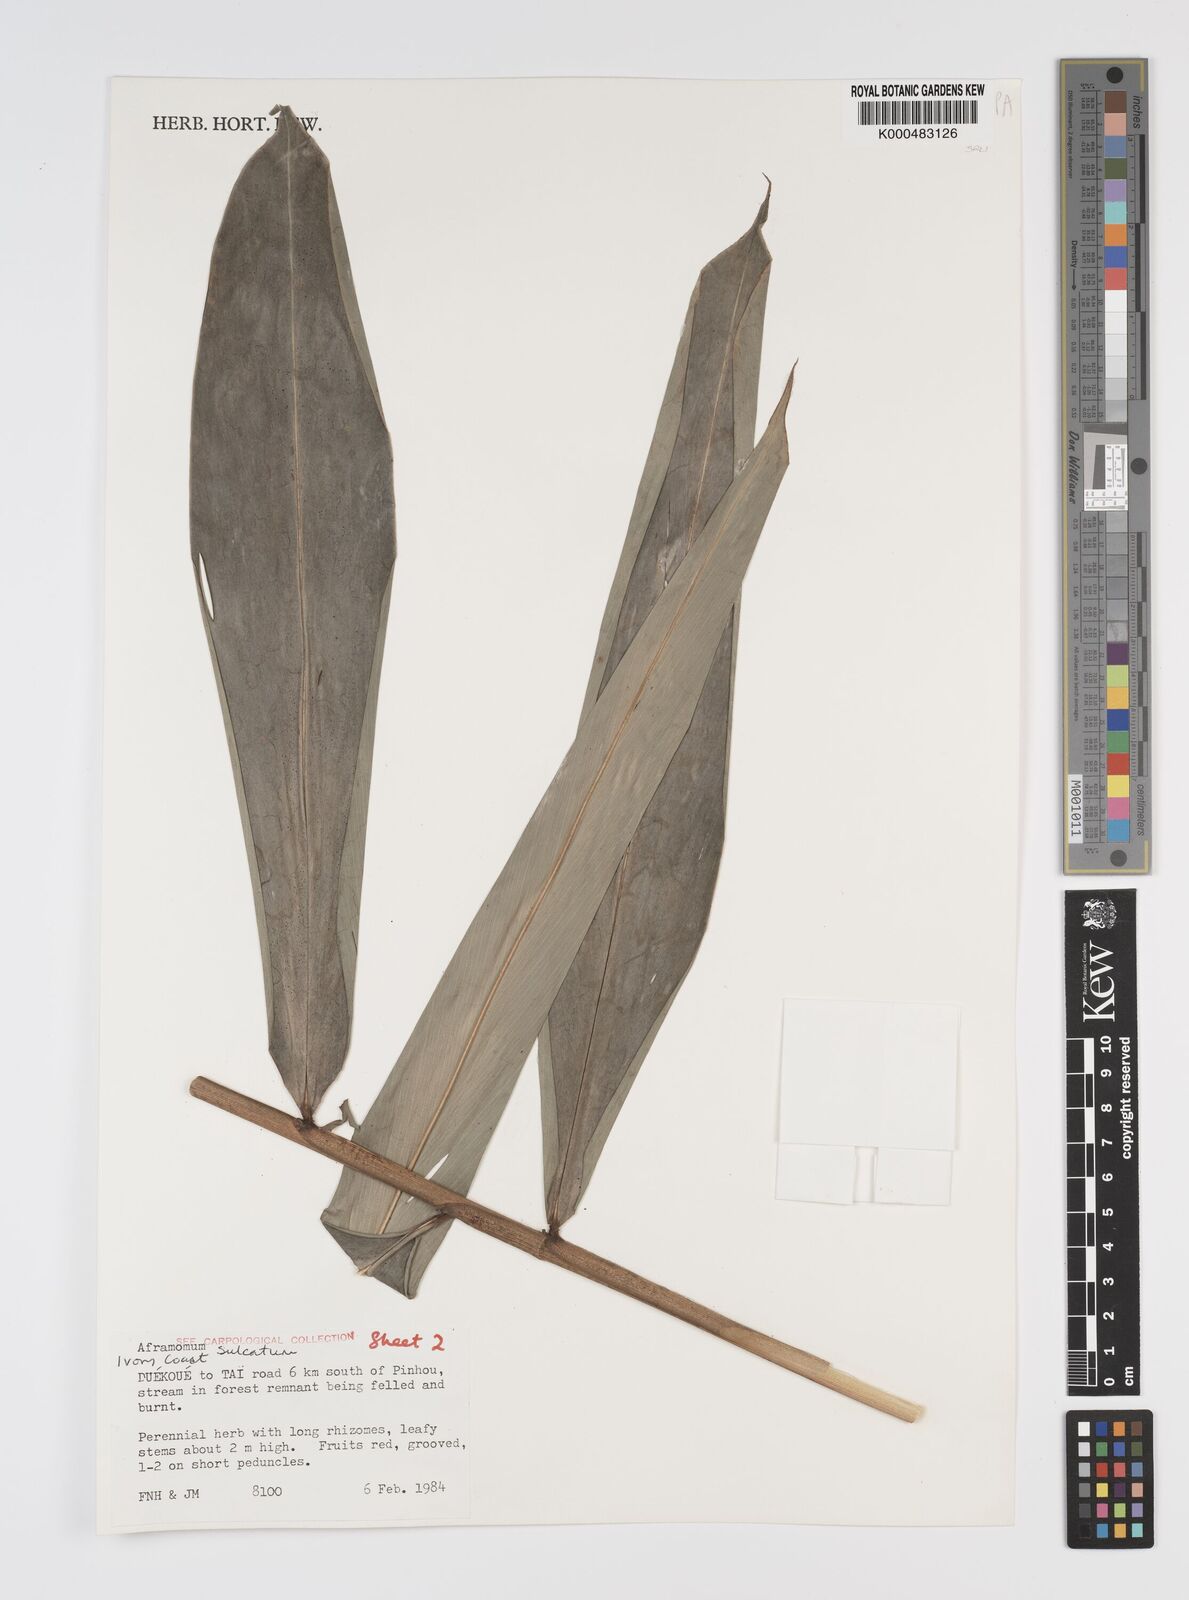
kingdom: Plantae
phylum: Tracheophyta
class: Liliopsida
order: Zingiberales
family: Zingiberaceae
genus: Aframomum
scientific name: Aframomum sulcatum
